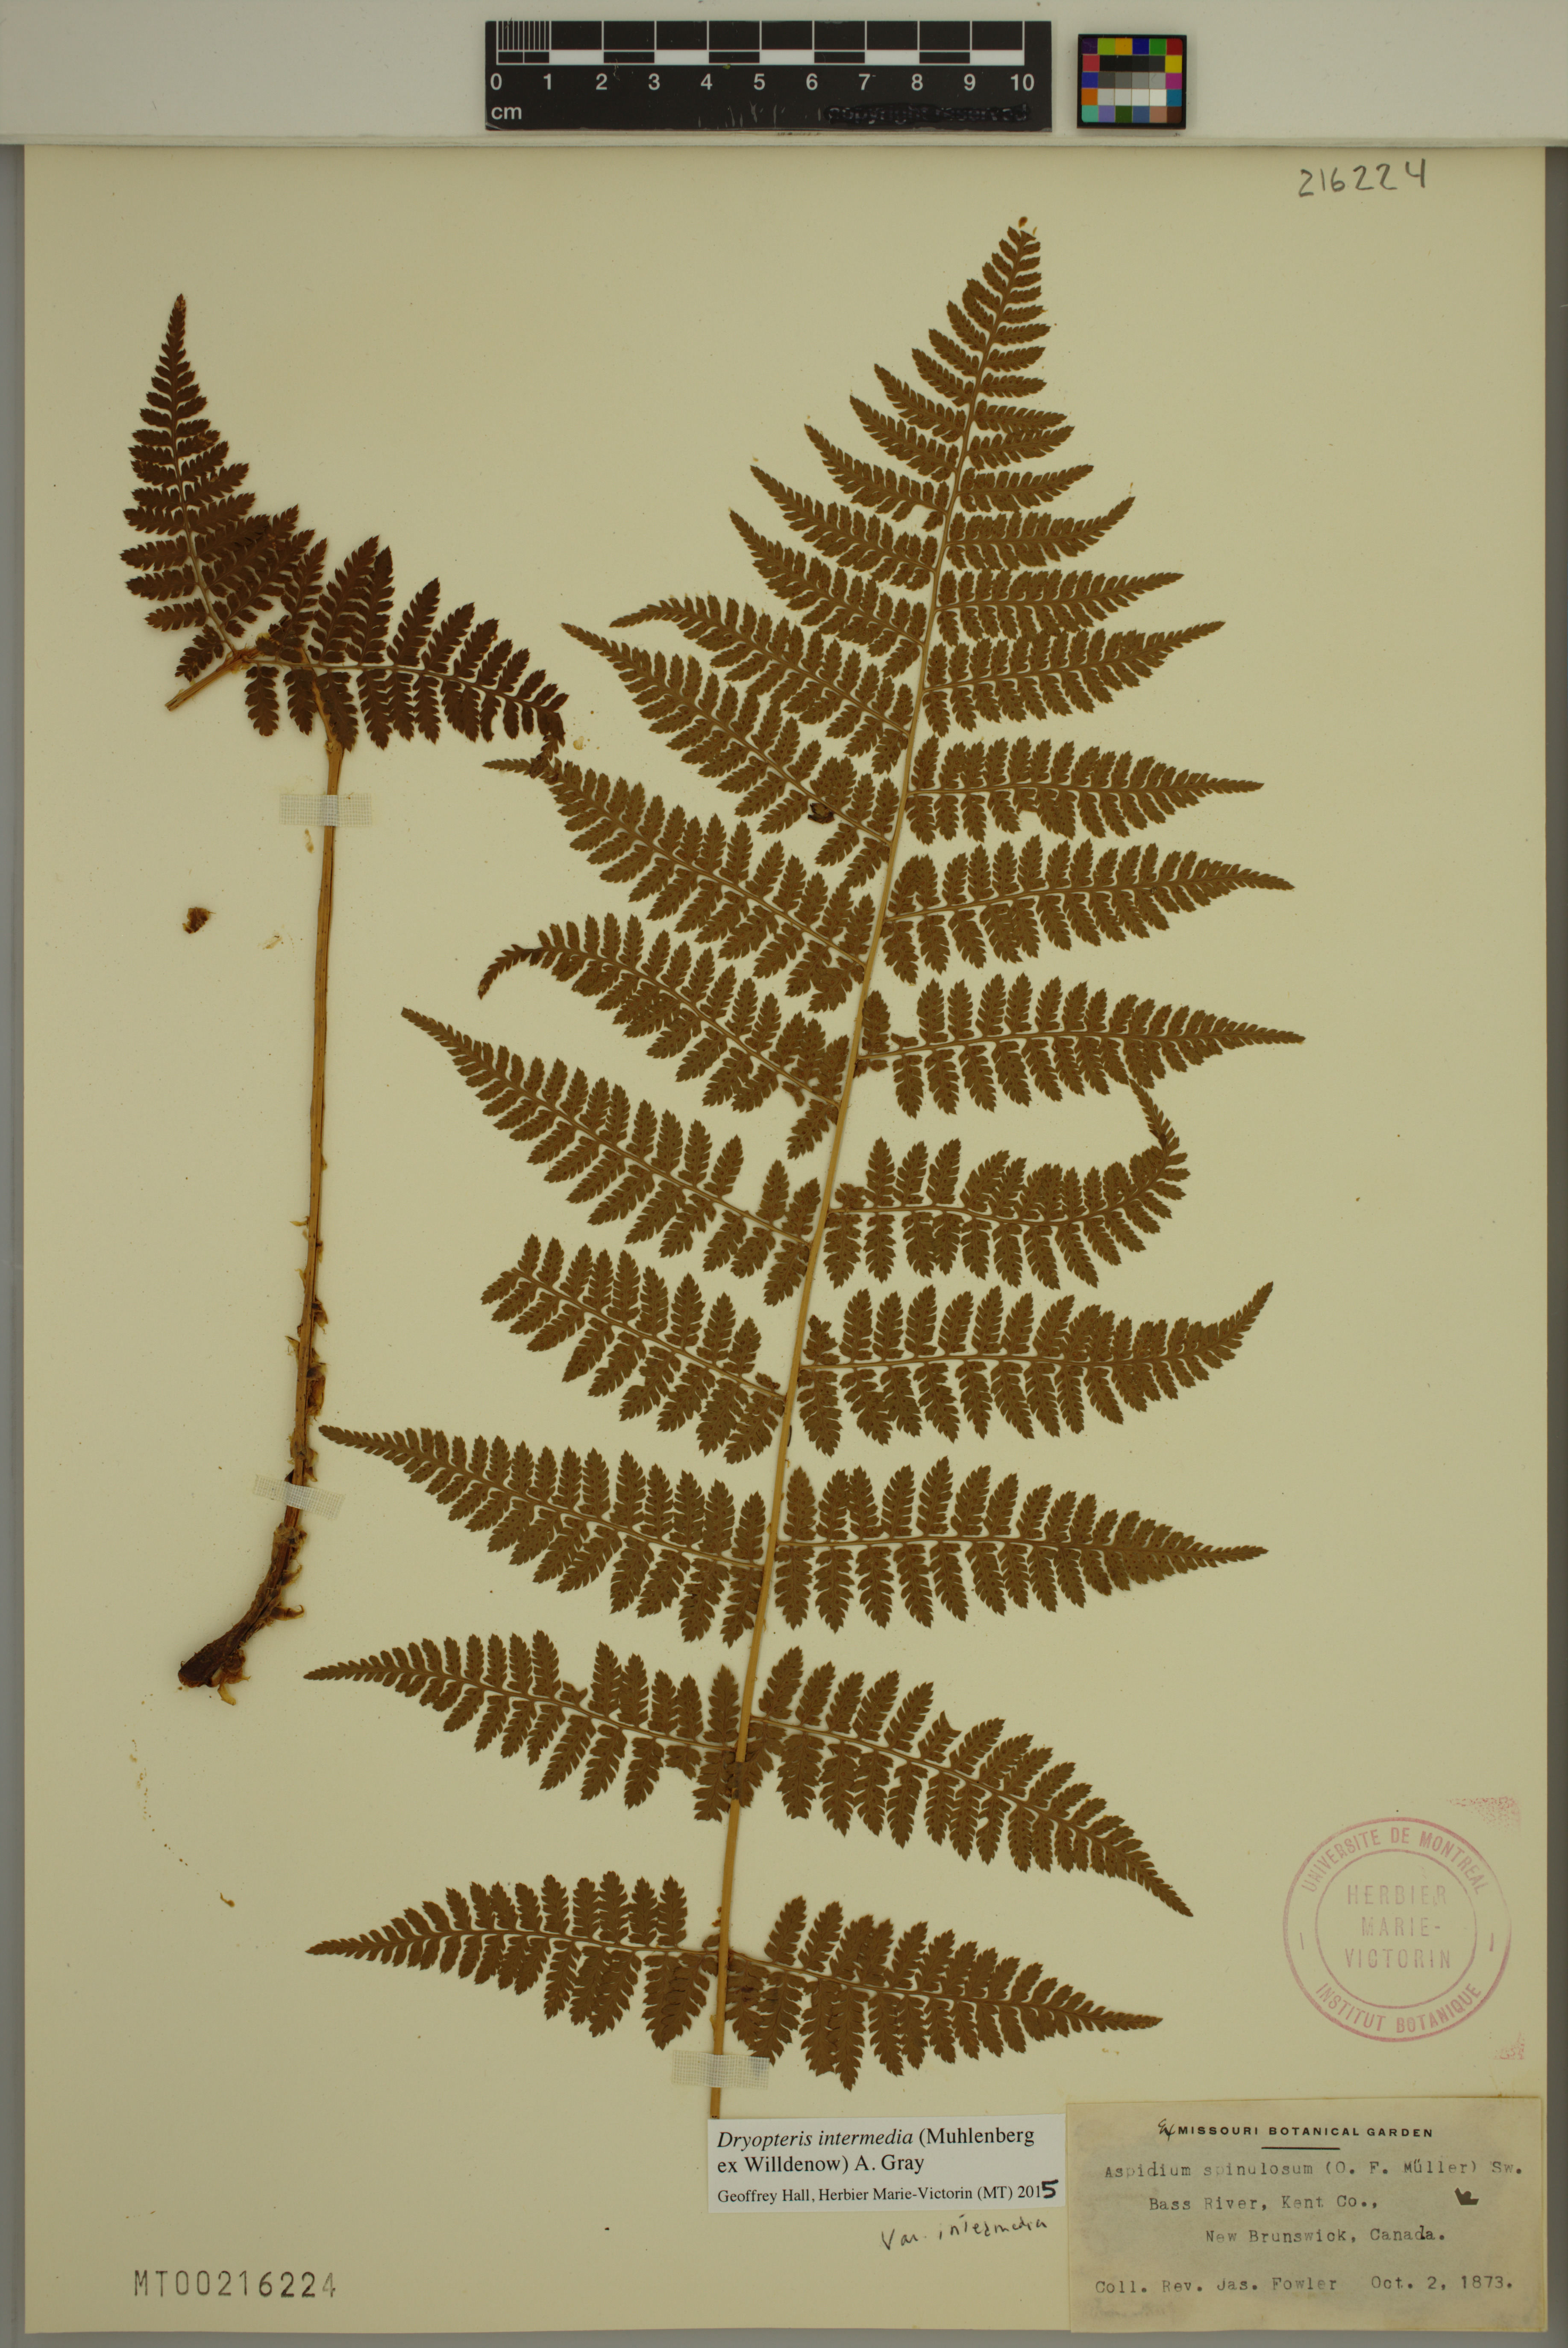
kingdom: Plantae
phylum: Tracheophyta
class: Polypodiopsida
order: Polypodiales
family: Dryopteridaceae
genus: Dryopteris
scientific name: Dryopteris intermedia
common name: Evergreen wood fern
